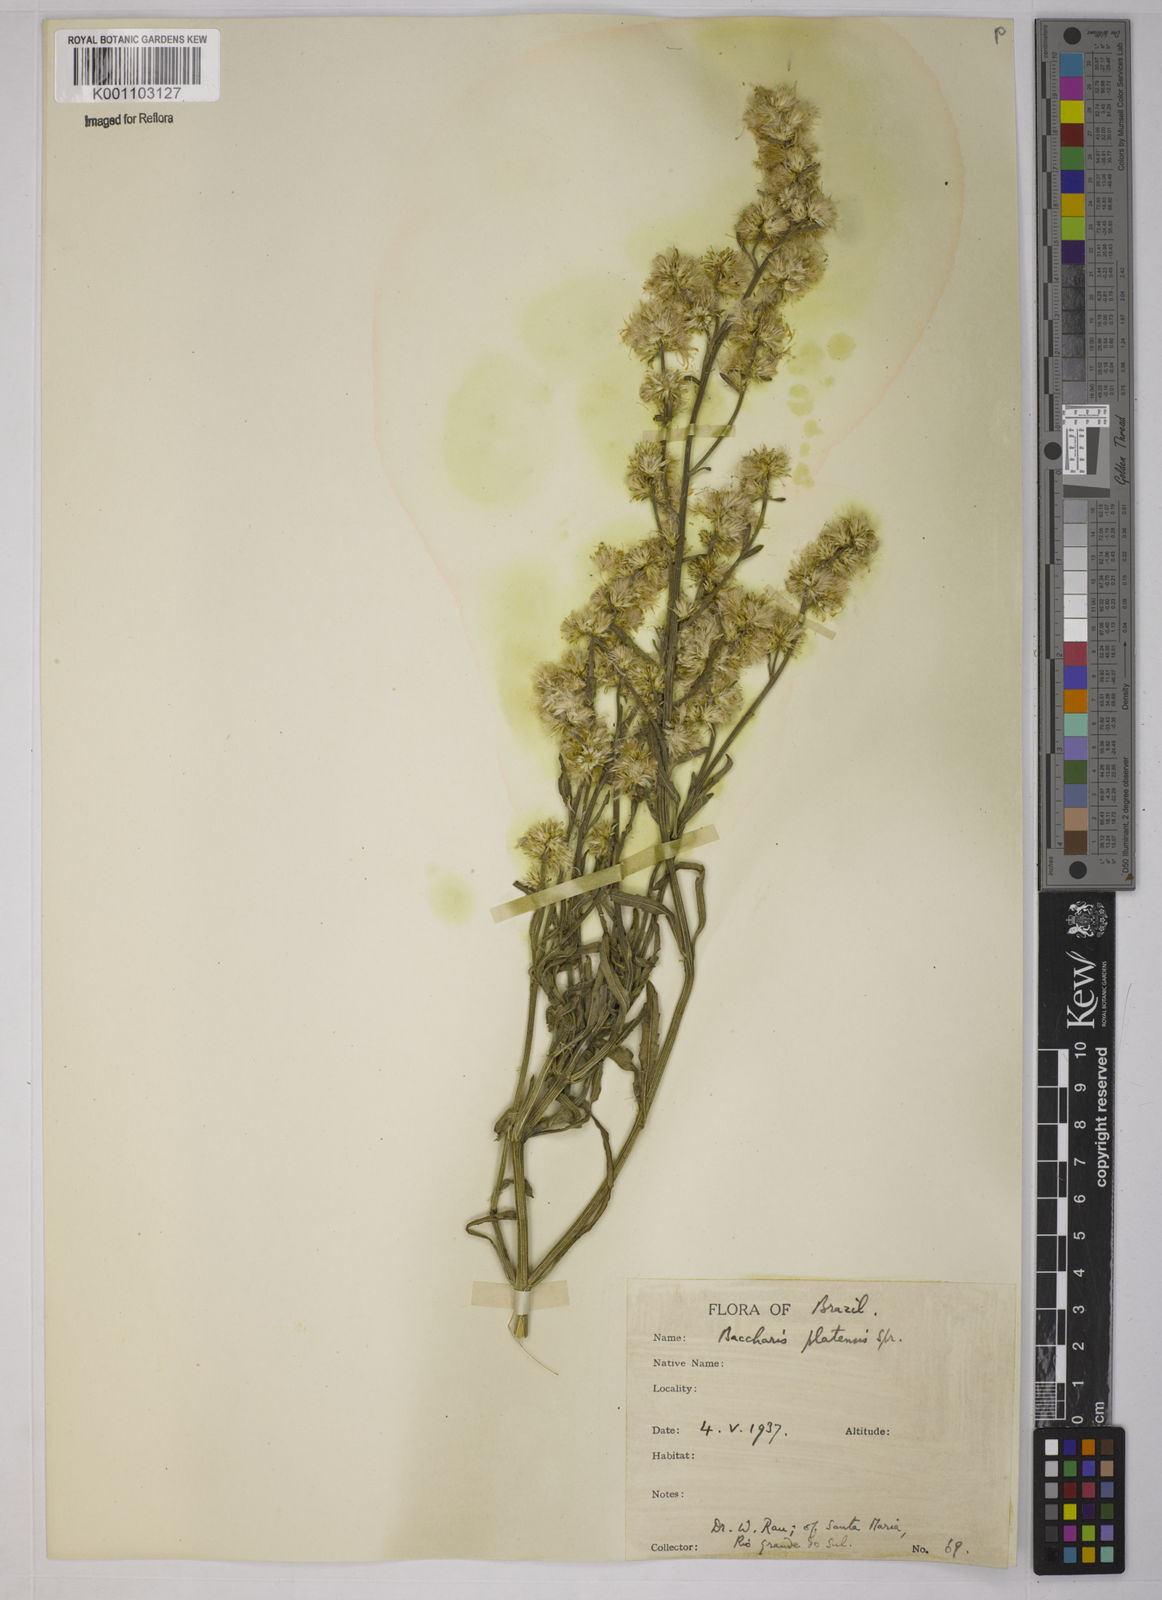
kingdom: Plantae
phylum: Tracheophyta
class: Magnoliopsida
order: Asterales
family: Asteraceae
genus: Baccharis
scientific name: Baccharis hieronymi
